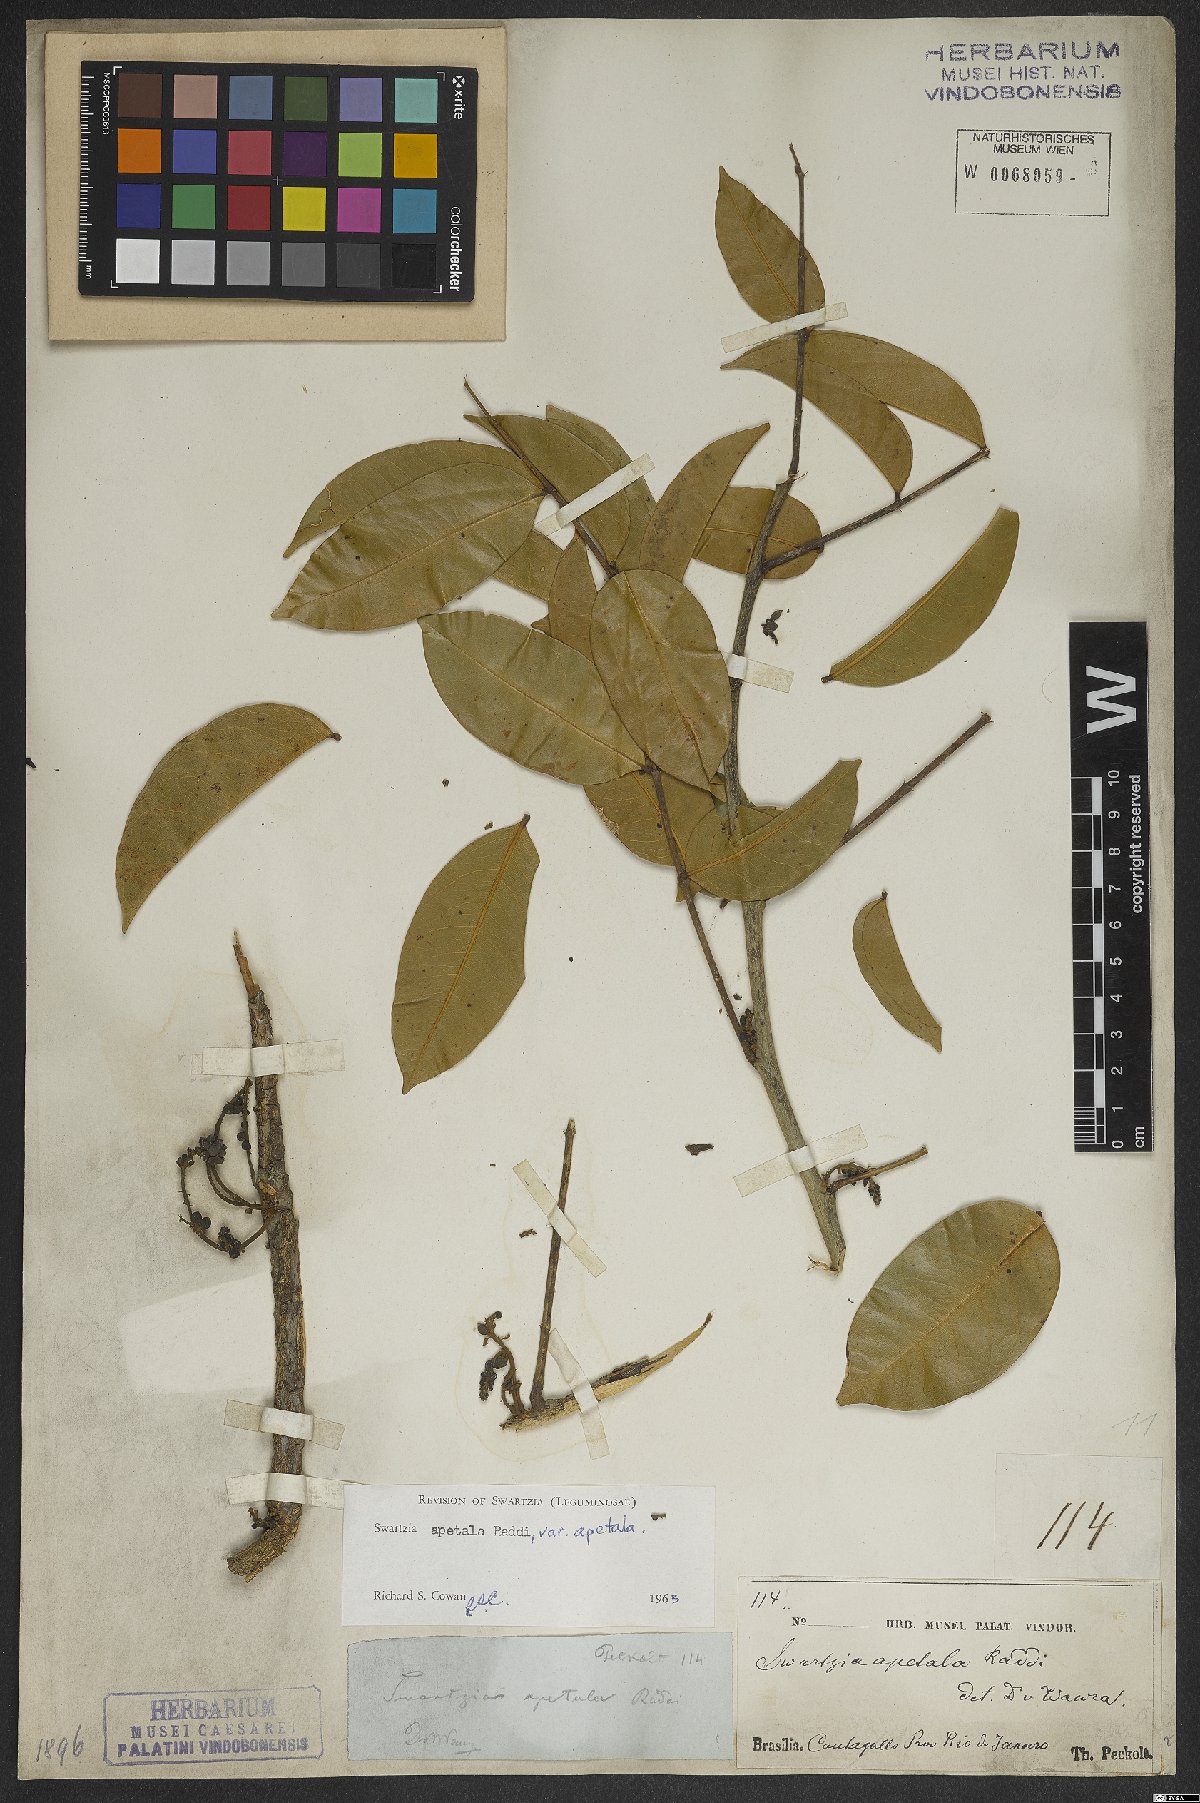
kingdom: Plantae
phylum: Tracheophyta
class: Magnoliopsida
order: Fabales
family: Fabaceae
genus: Swartzia
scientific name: Swartzia apetala
